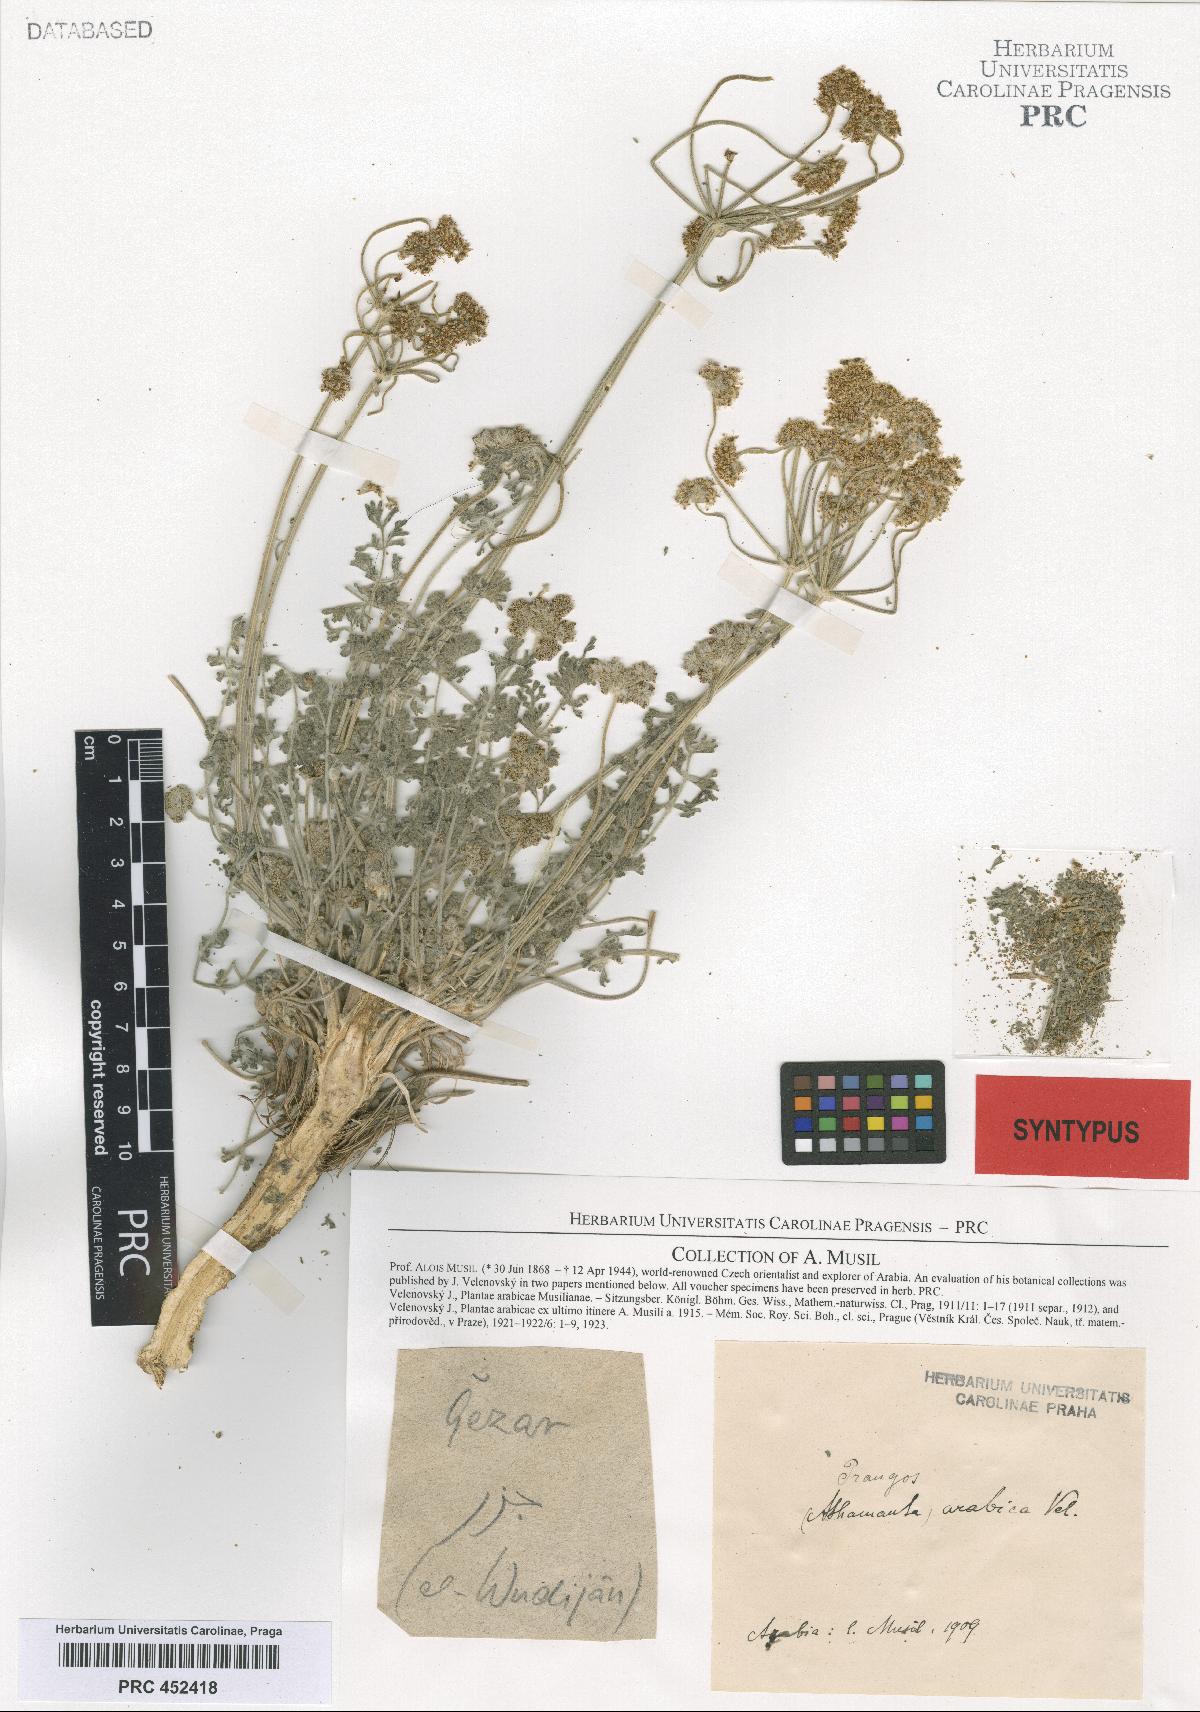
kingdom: Plantae
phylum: Tracheophyta
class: Magnoliopsida
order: Apiales
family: Apiaceae
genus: Prangos
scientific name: Prangos acaulis
